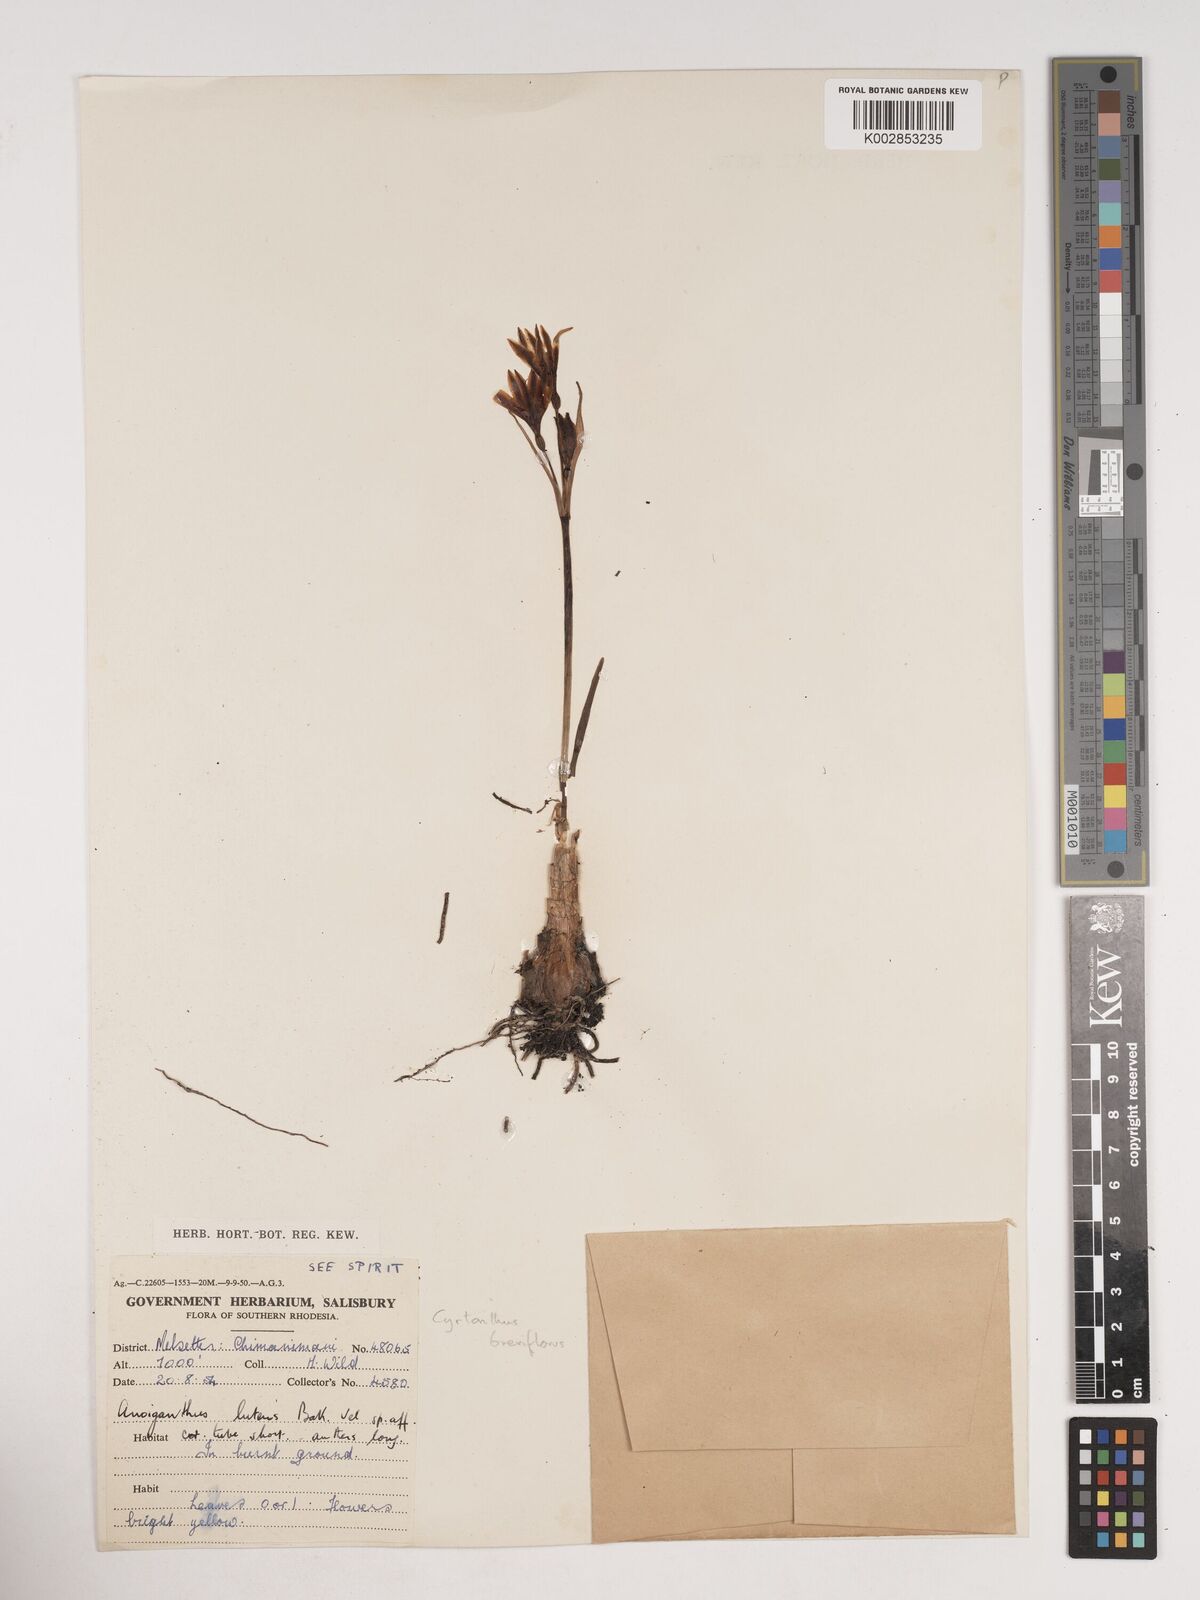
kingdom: Plantae
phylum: Tracheophyta
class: Liliopsida
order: Asparagales
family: Amaryllidaceae
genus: Cyrtanthus
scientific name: Cyrtanthus breviflorus
